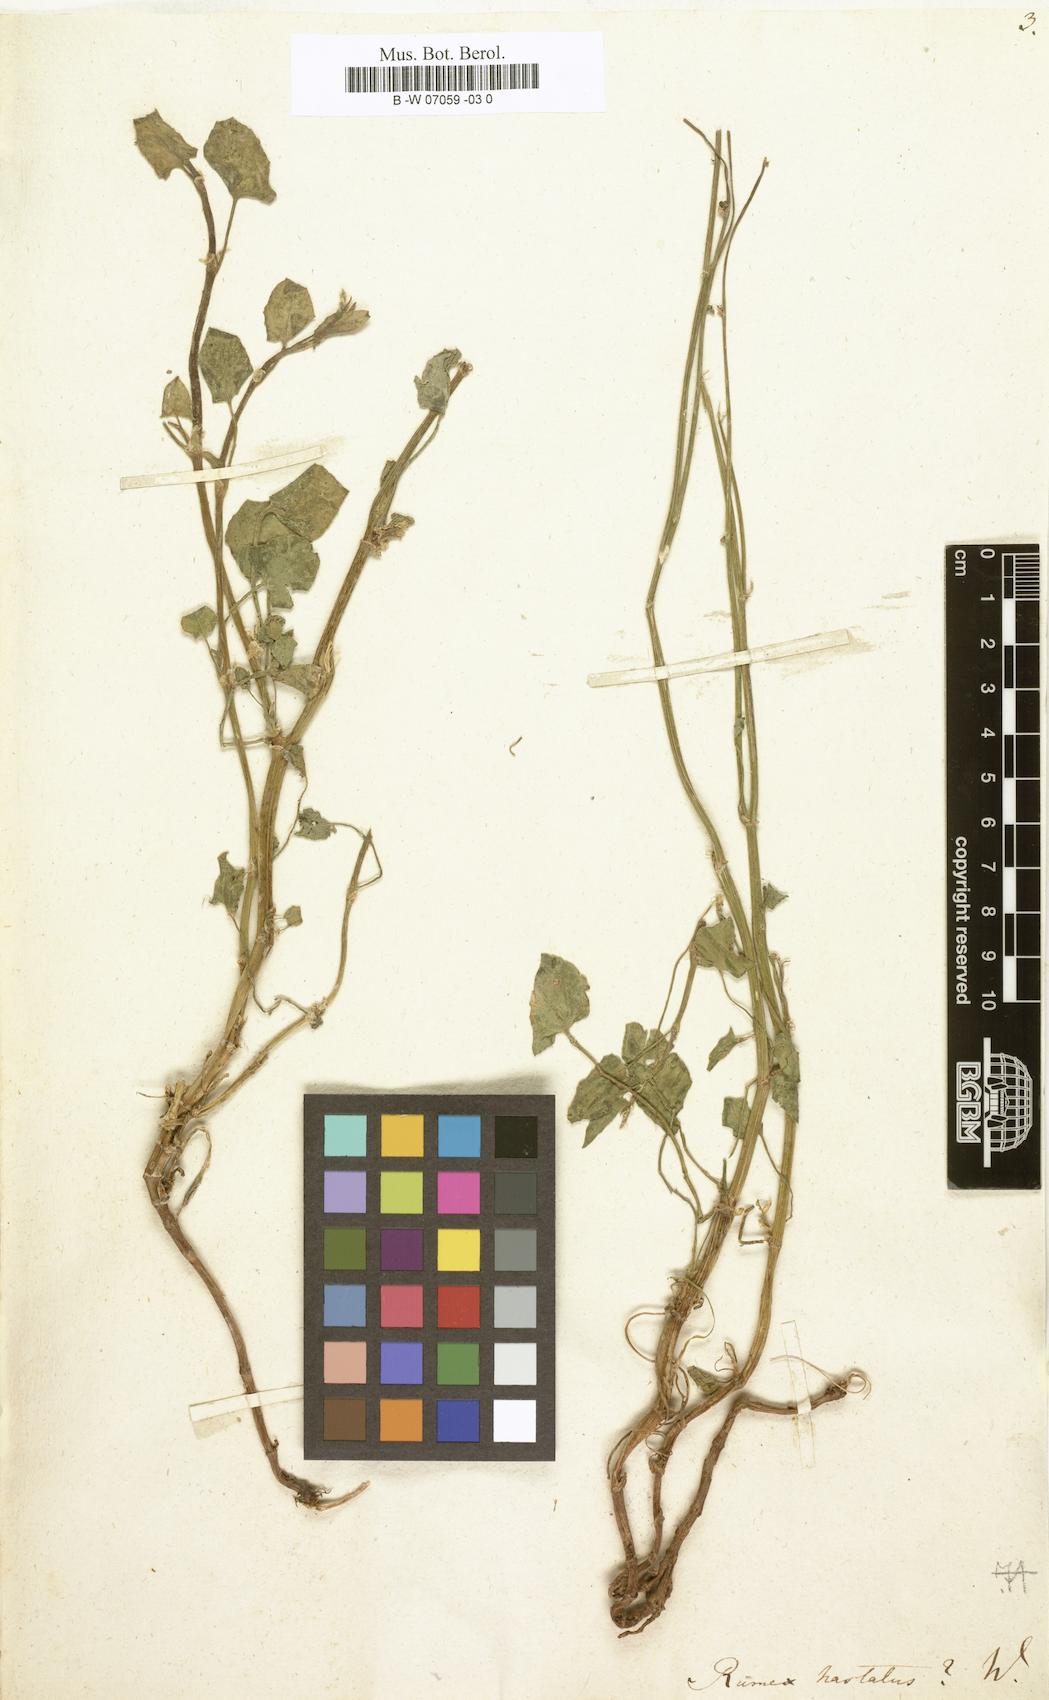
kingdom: Plantae
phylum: Tracheophyta
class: Magnoliopsida
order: Caryophyllales
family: Polygonaceae
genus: Rumex
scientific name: Rumex hastatus
